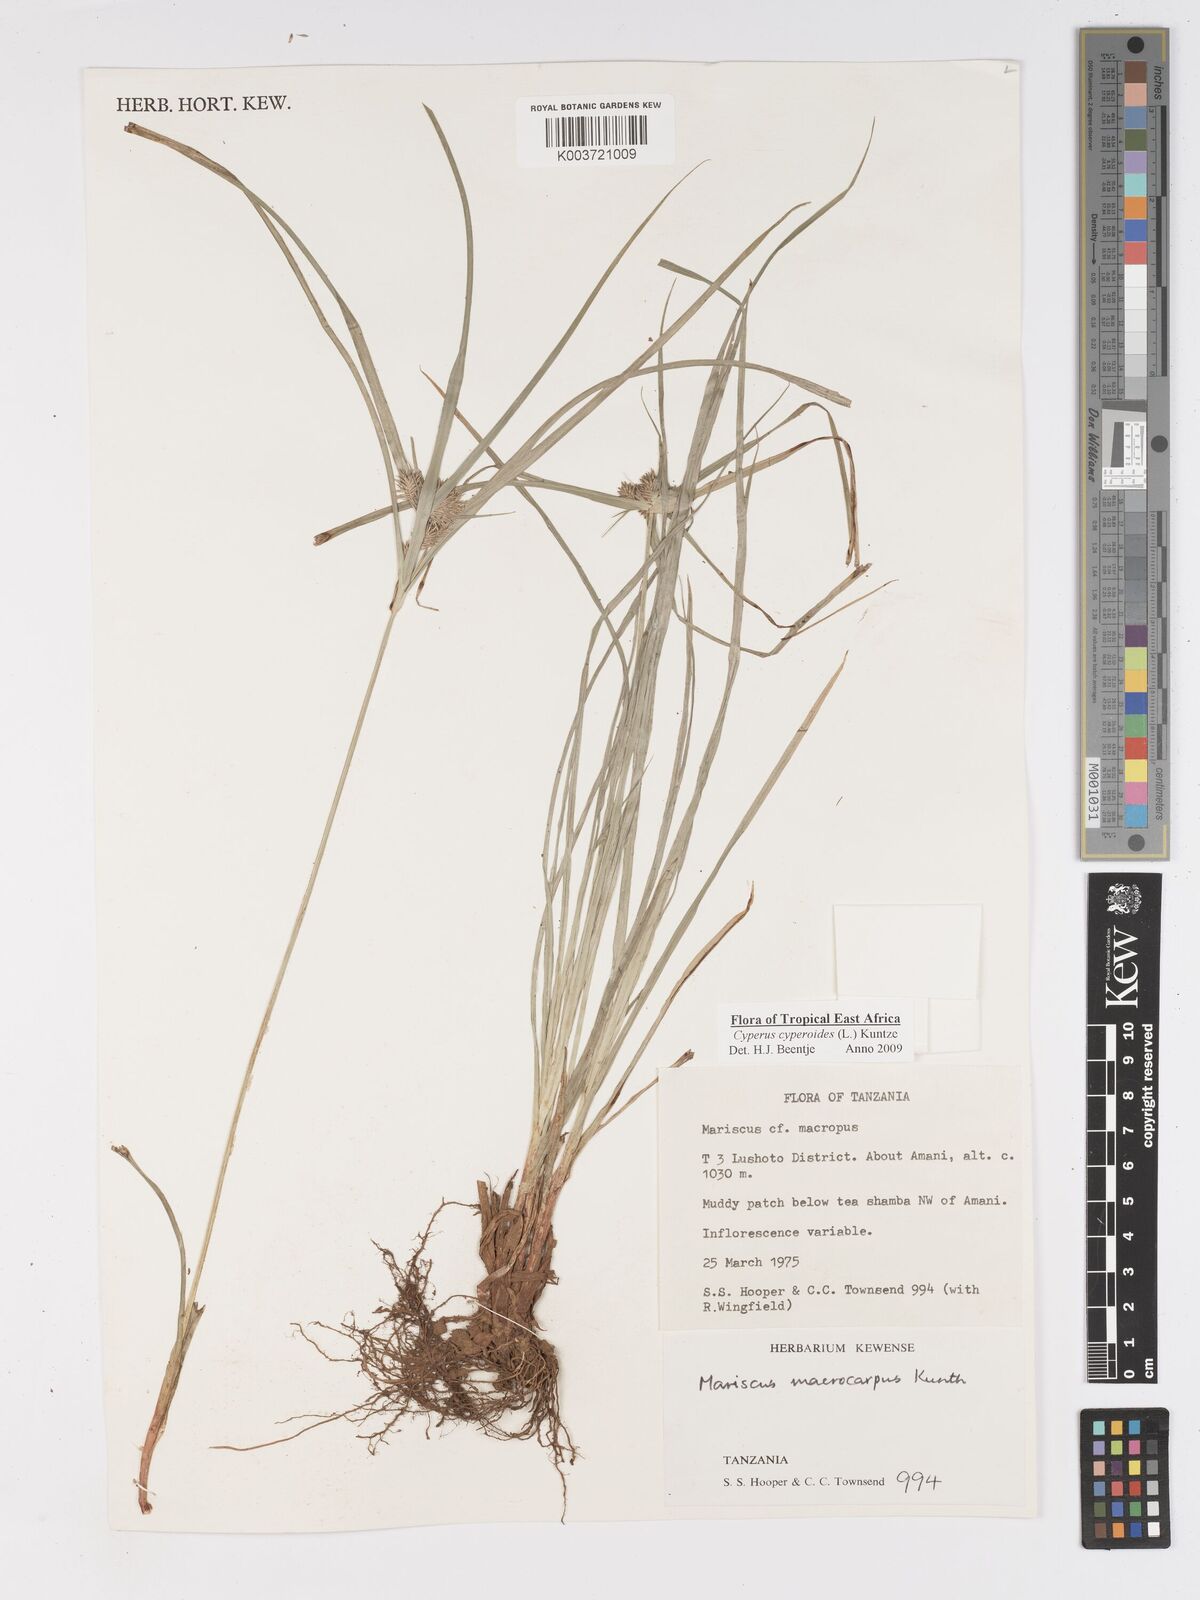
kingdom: Plantae
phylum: Tracheophyta
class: Liliopsida
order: Poales
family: Cyperaceae
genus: Cyperus
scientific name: Cyperus cyperoides
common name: Pacific island flat sedge
